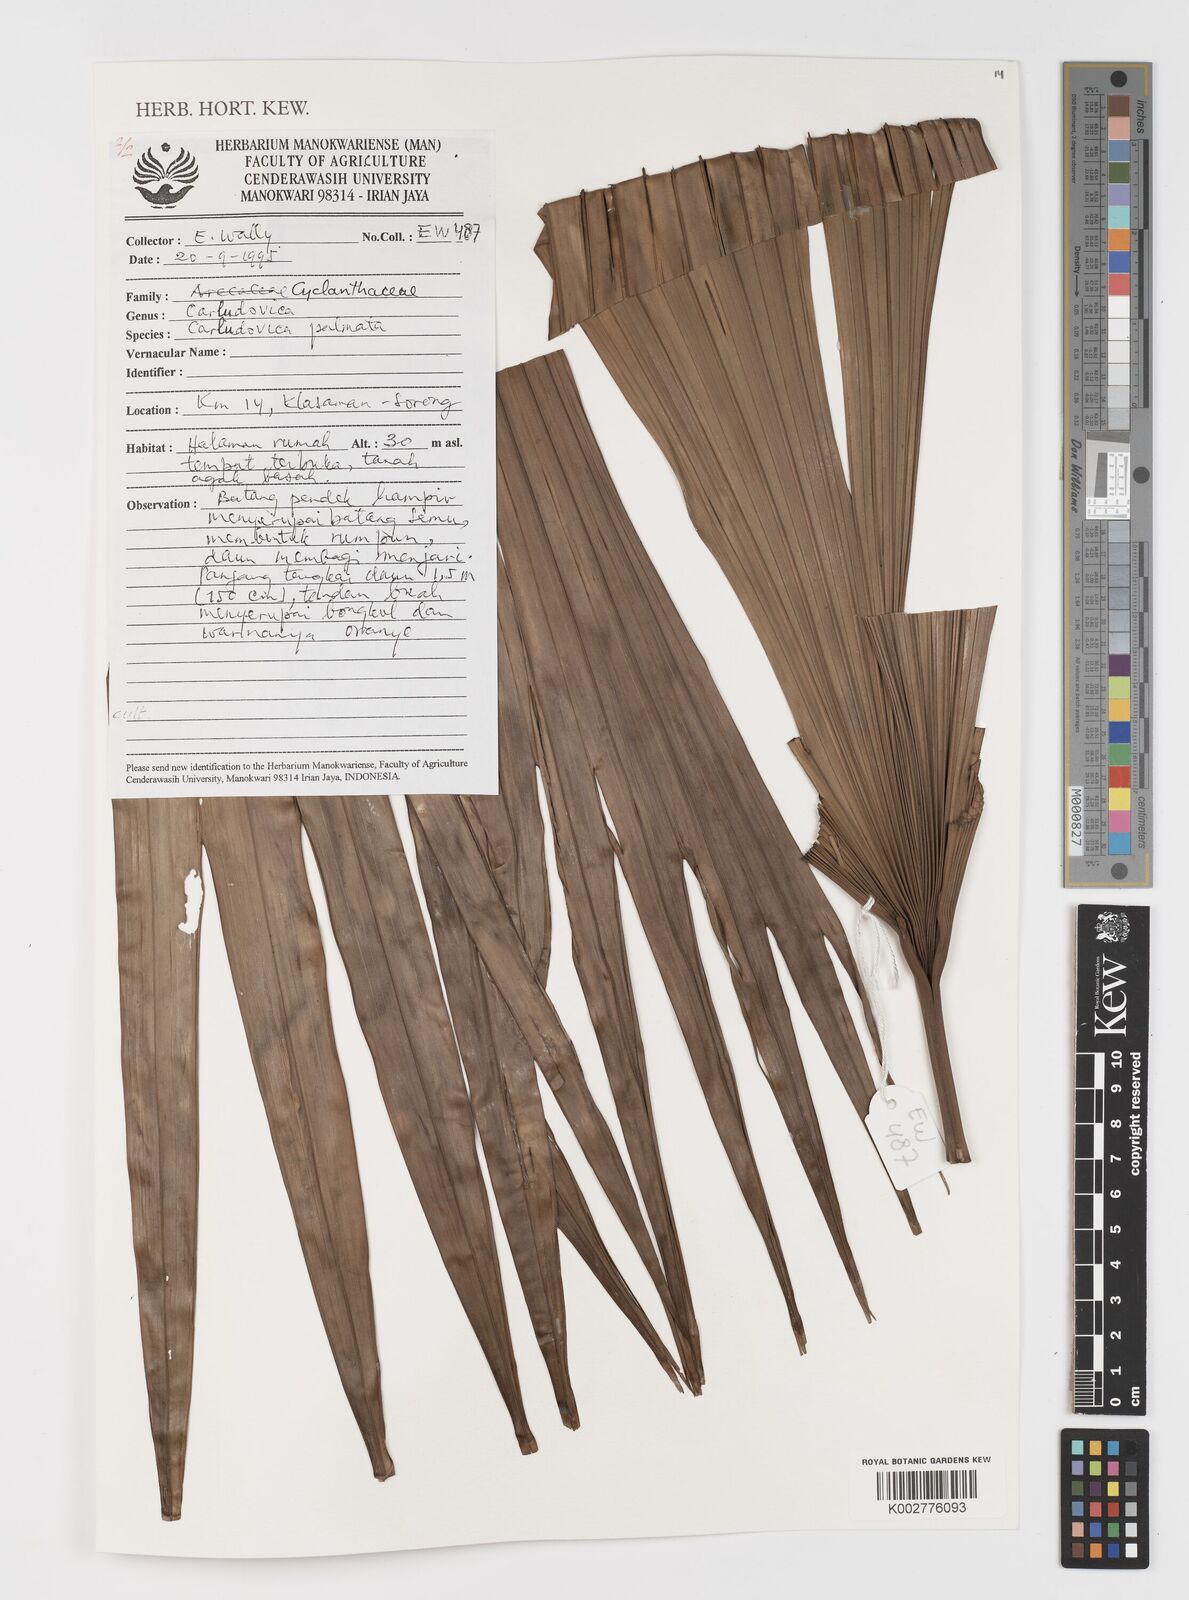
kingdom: Plantae
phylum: Tracheophyta
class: Liliopsida
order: Pandanales
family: Cyclanthaceae
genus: Carludovica
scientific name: Carludovica palmata
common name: Panama hat plant
